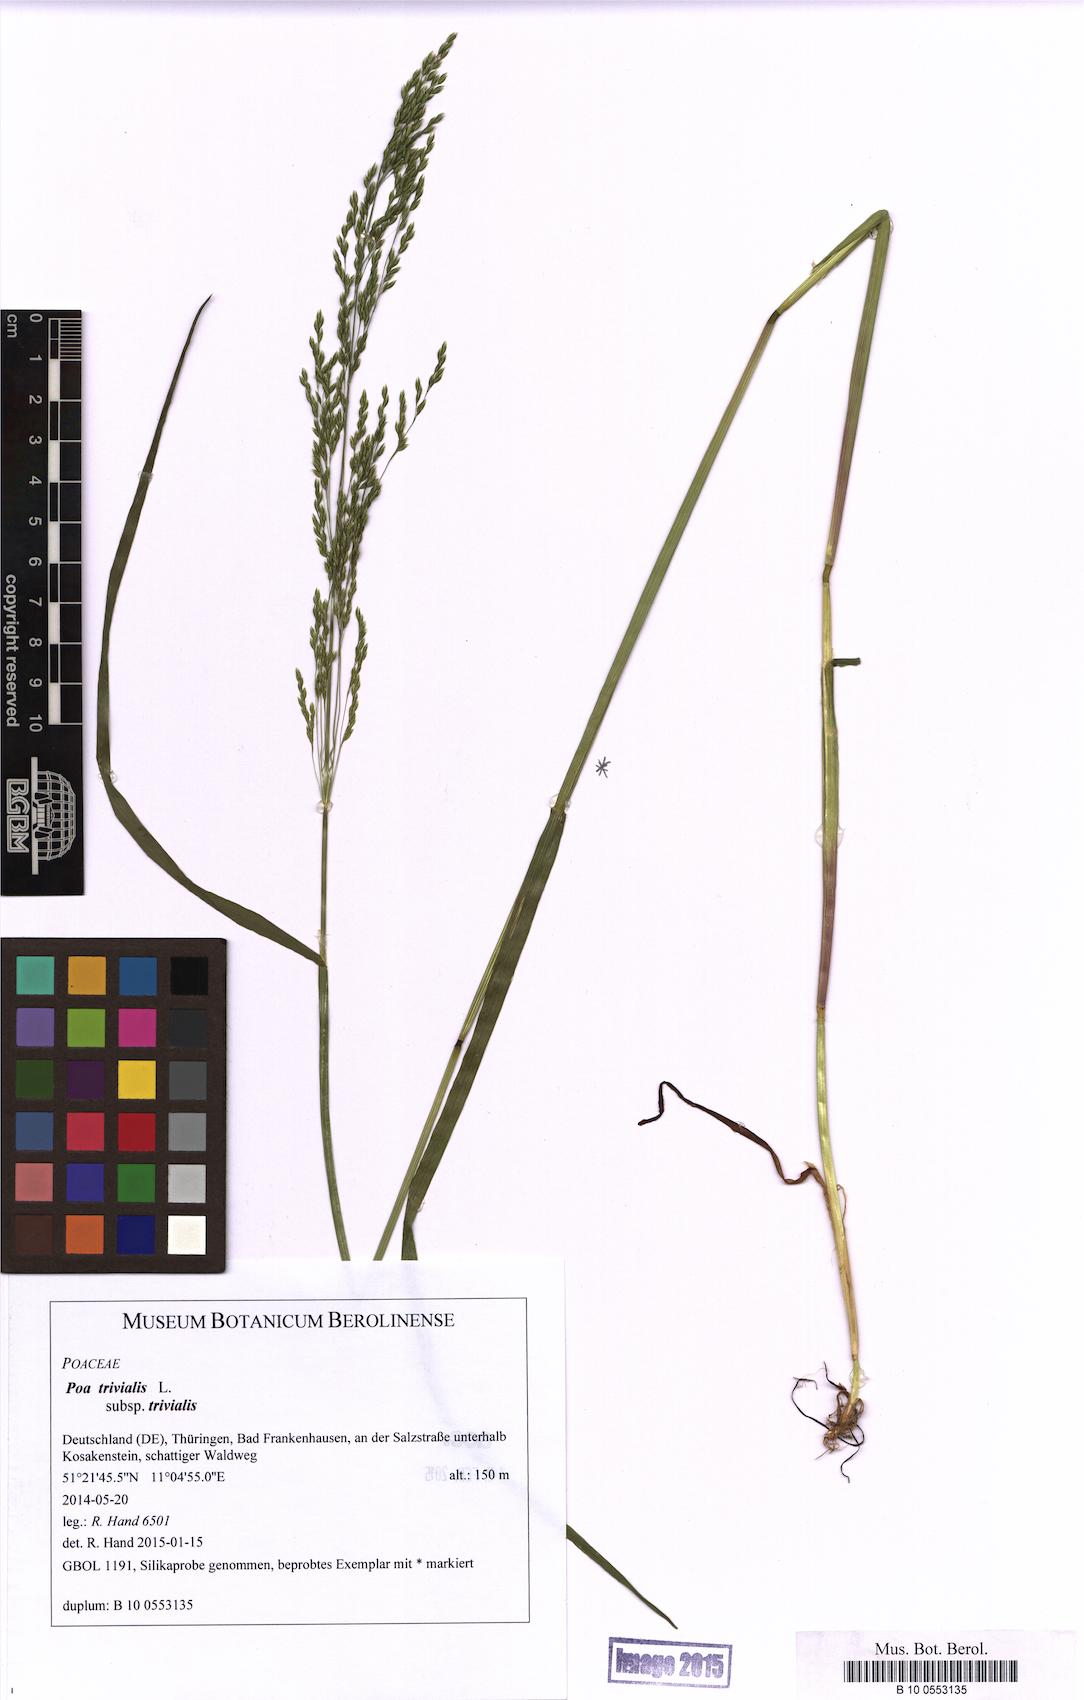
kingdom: Plantae
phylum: Tracheophyta
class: Liliopsida
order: Poales
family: Poaceae
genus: Poa
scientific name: Poa trivialis
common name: Rough bluegrass
